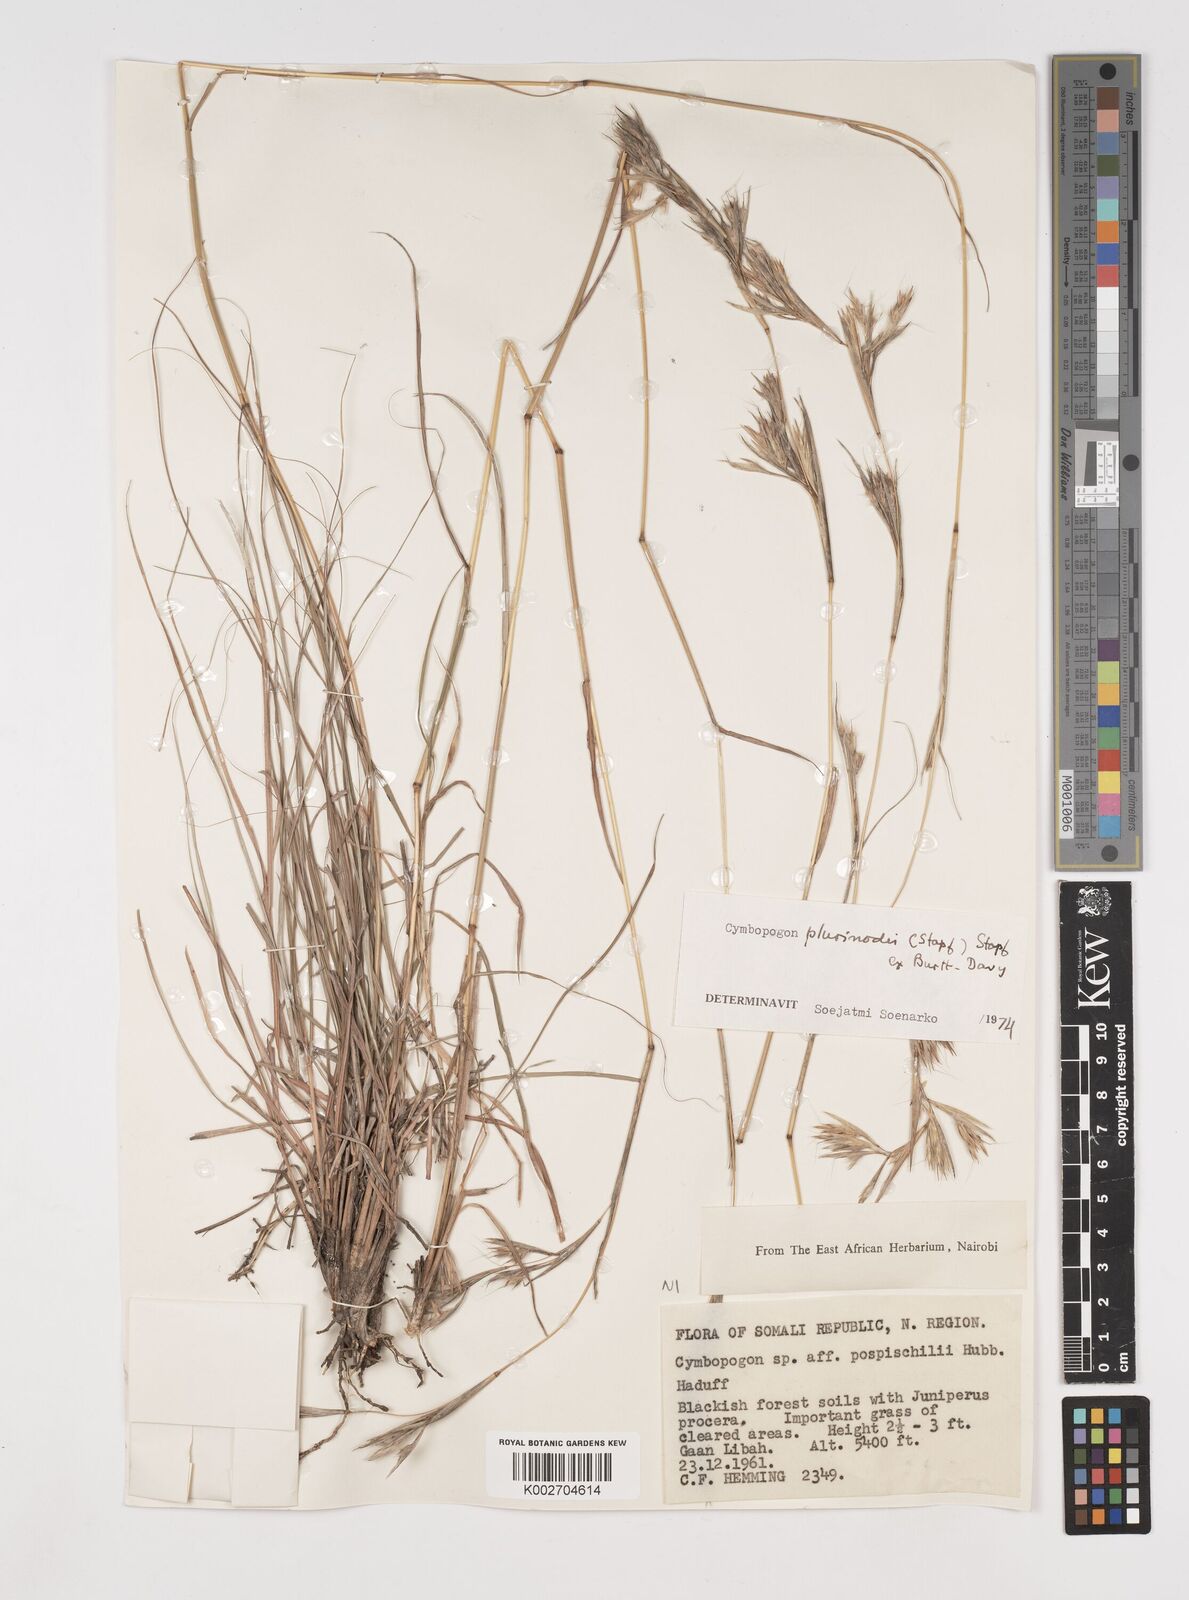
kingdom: Plantae
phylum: Tracheophyta
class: Liliopsida
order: Poales
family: Poaceae
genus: Cymbopogon
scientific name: Cymbopogon pospischilii
